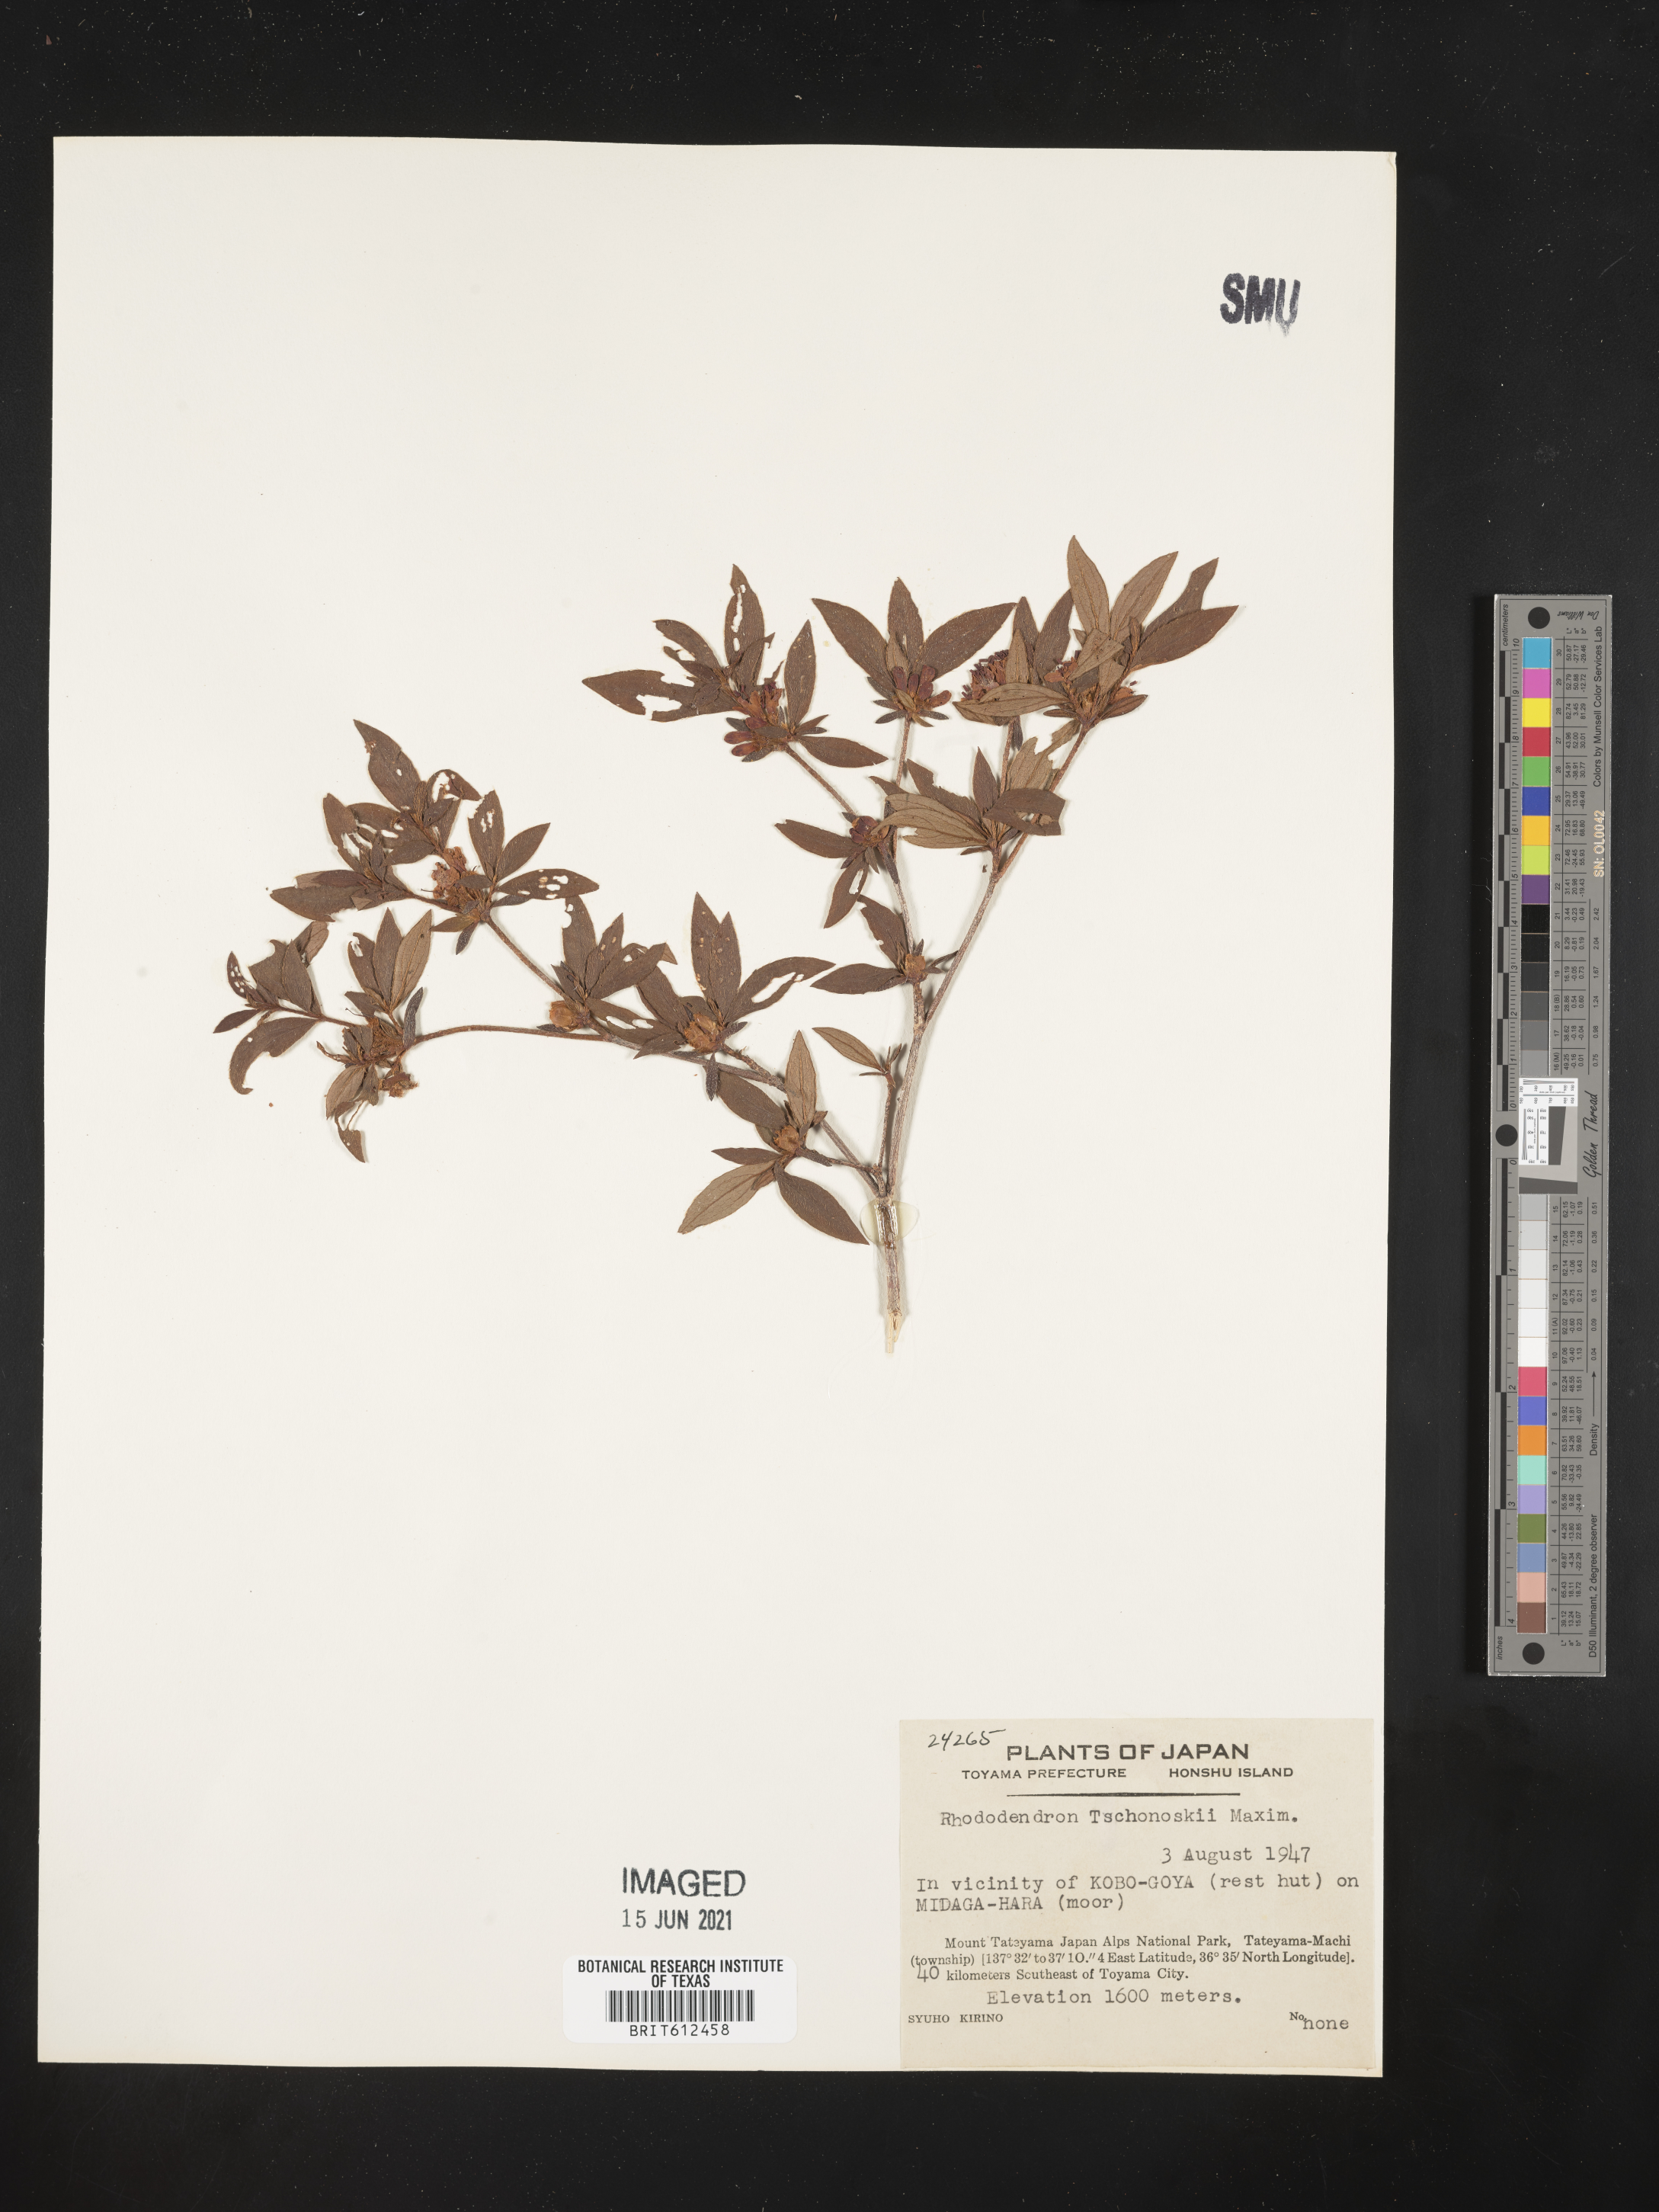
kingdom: Plantae
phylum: Tracheophyta
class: Magnoliopsida
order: Ericales
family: Ericaceae
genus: Rhododendron
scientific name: Rhododendron tschonoskii
